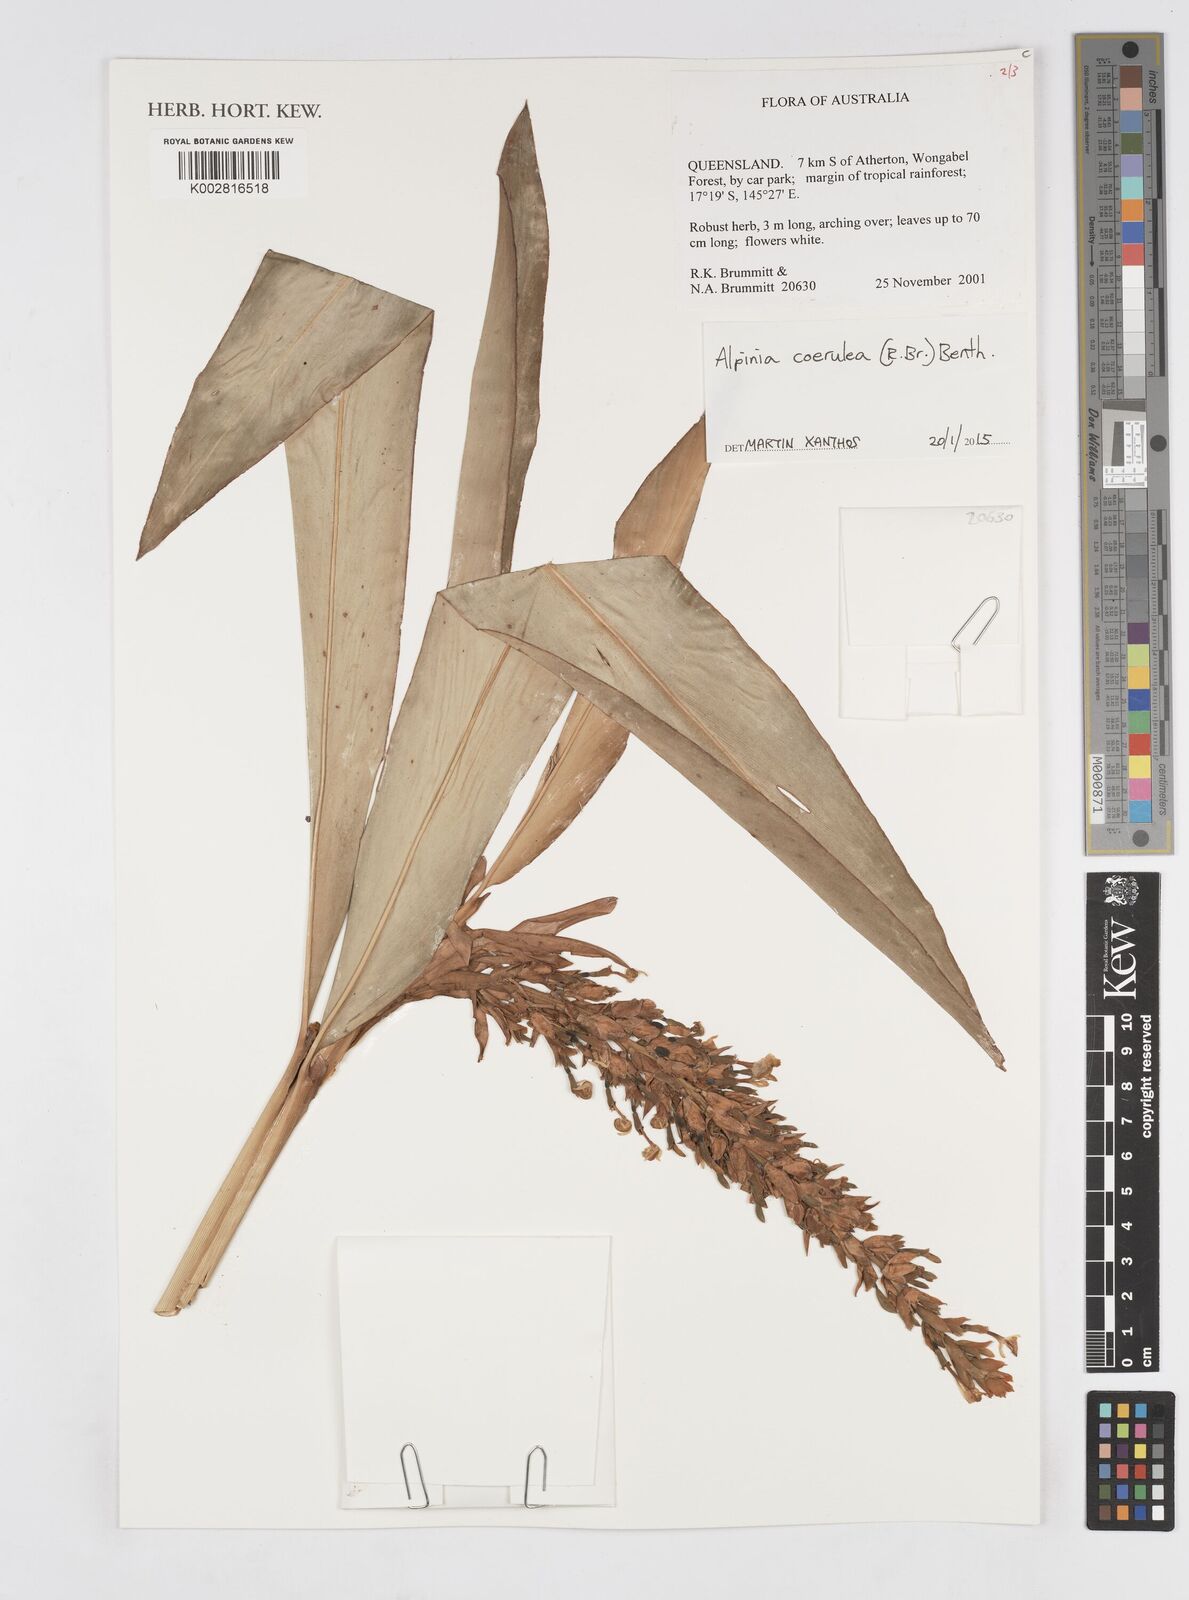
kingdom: Plantae
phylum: Tracheophyta
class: Liliopsida
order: Zingiberales
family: Zingiberaceae
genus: Alpinia
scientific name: Alpinia
